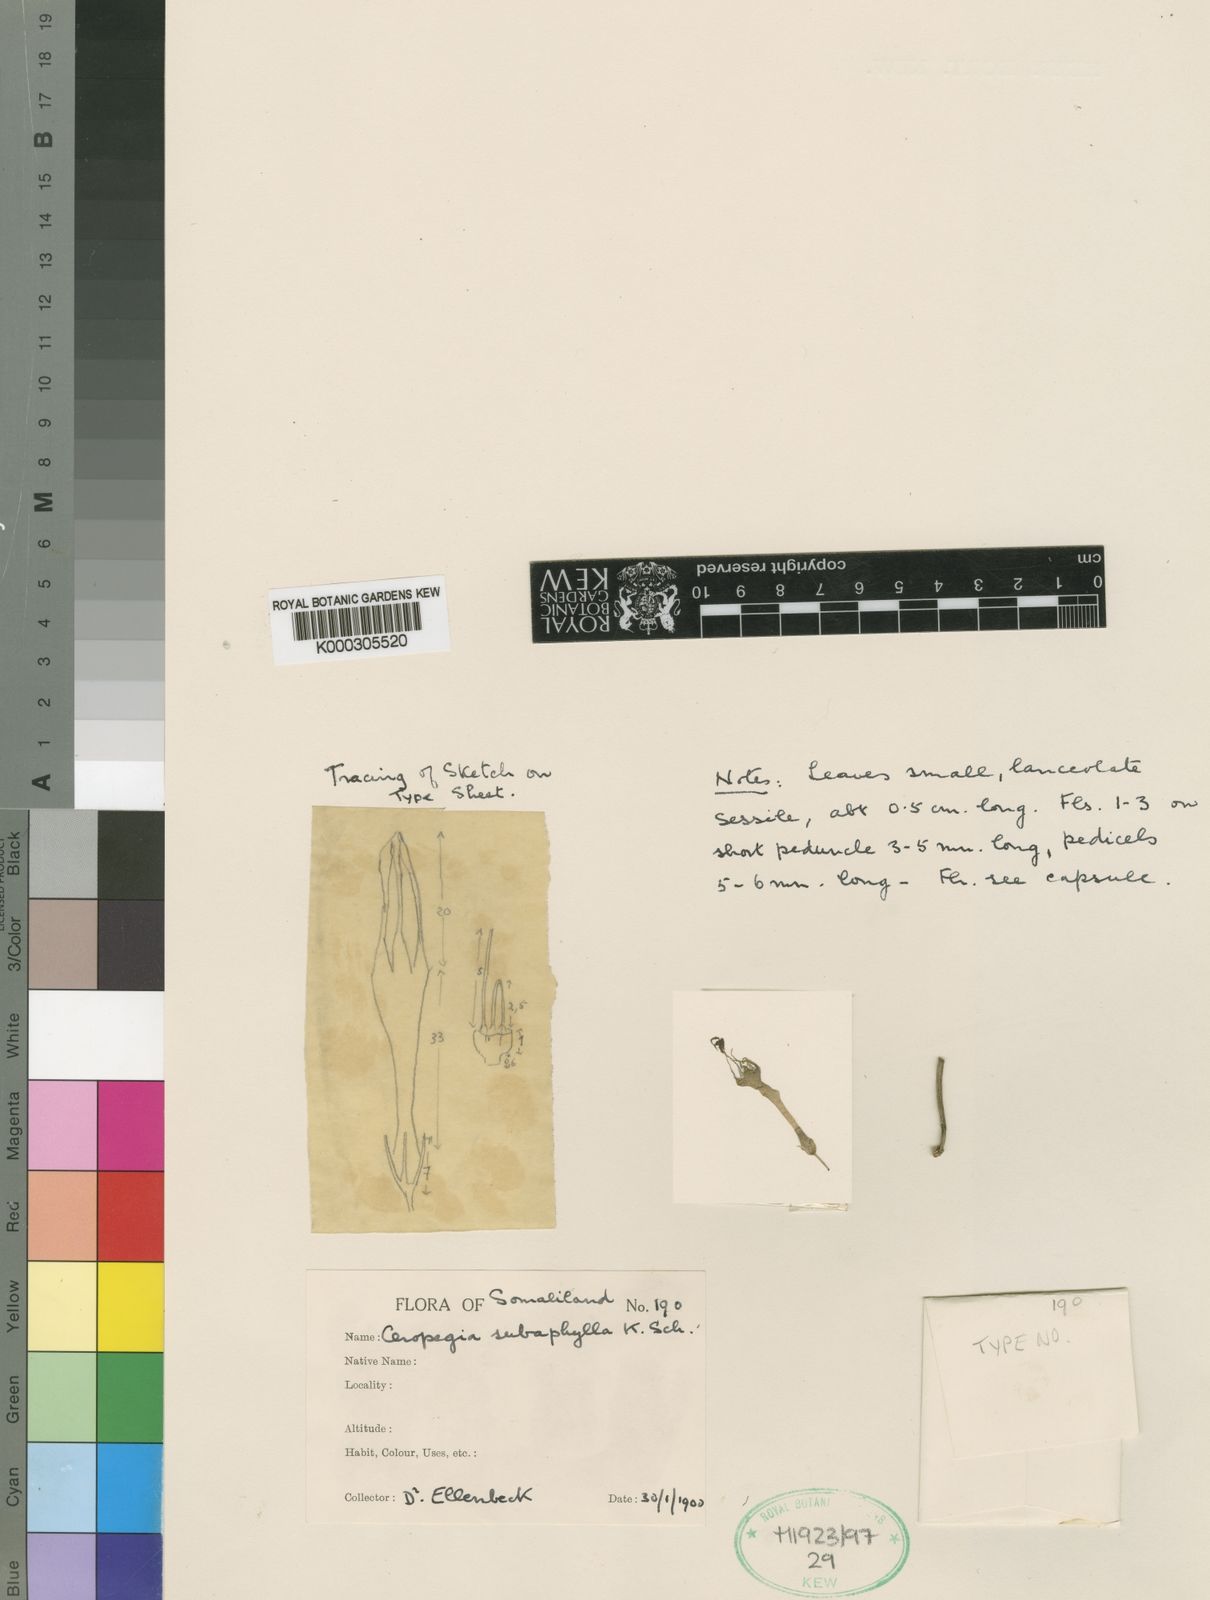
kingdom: Plantae
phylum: Tracheophyta
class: Magnoliopsida
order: Gentianales
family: Apocynaceae
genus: Ceropegia
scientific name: Ceropegia subaphylla
